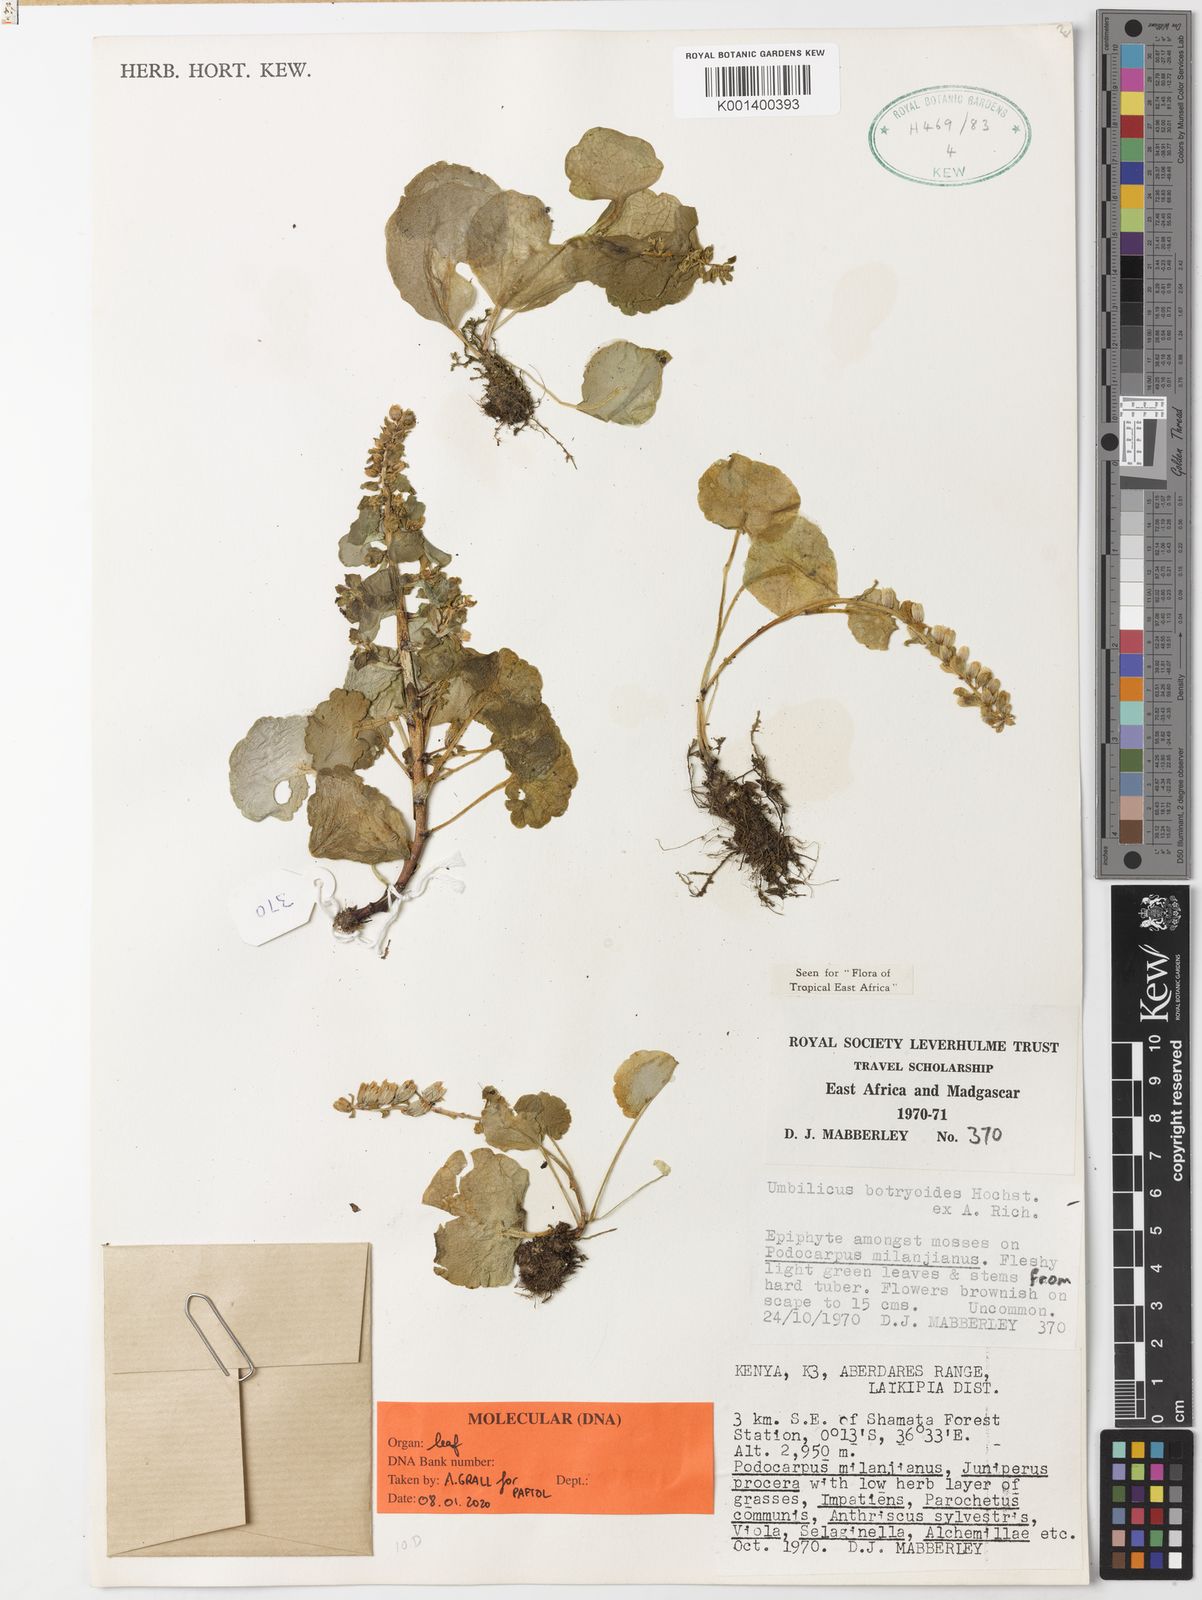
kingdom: Plantae
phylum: Tracheophyta
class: Magnoliopsida
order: Saxifragales
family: Crassulaceae
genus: Umbilicus
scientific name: Umbilicus botryoides
